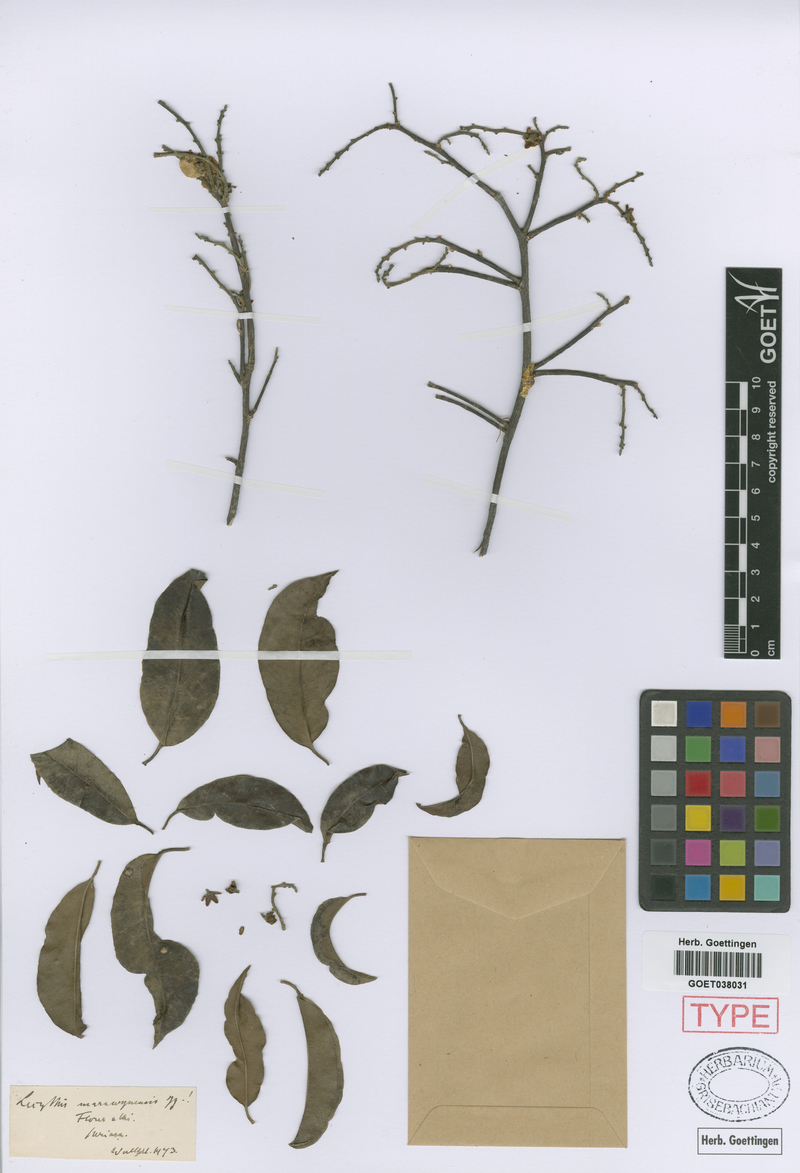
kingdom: Plantae
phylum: Tracheophyta
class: Magnoliopsida
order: Ericales
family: Lecythidaceae
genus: Lecythis
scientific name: Lecythis chartacea
